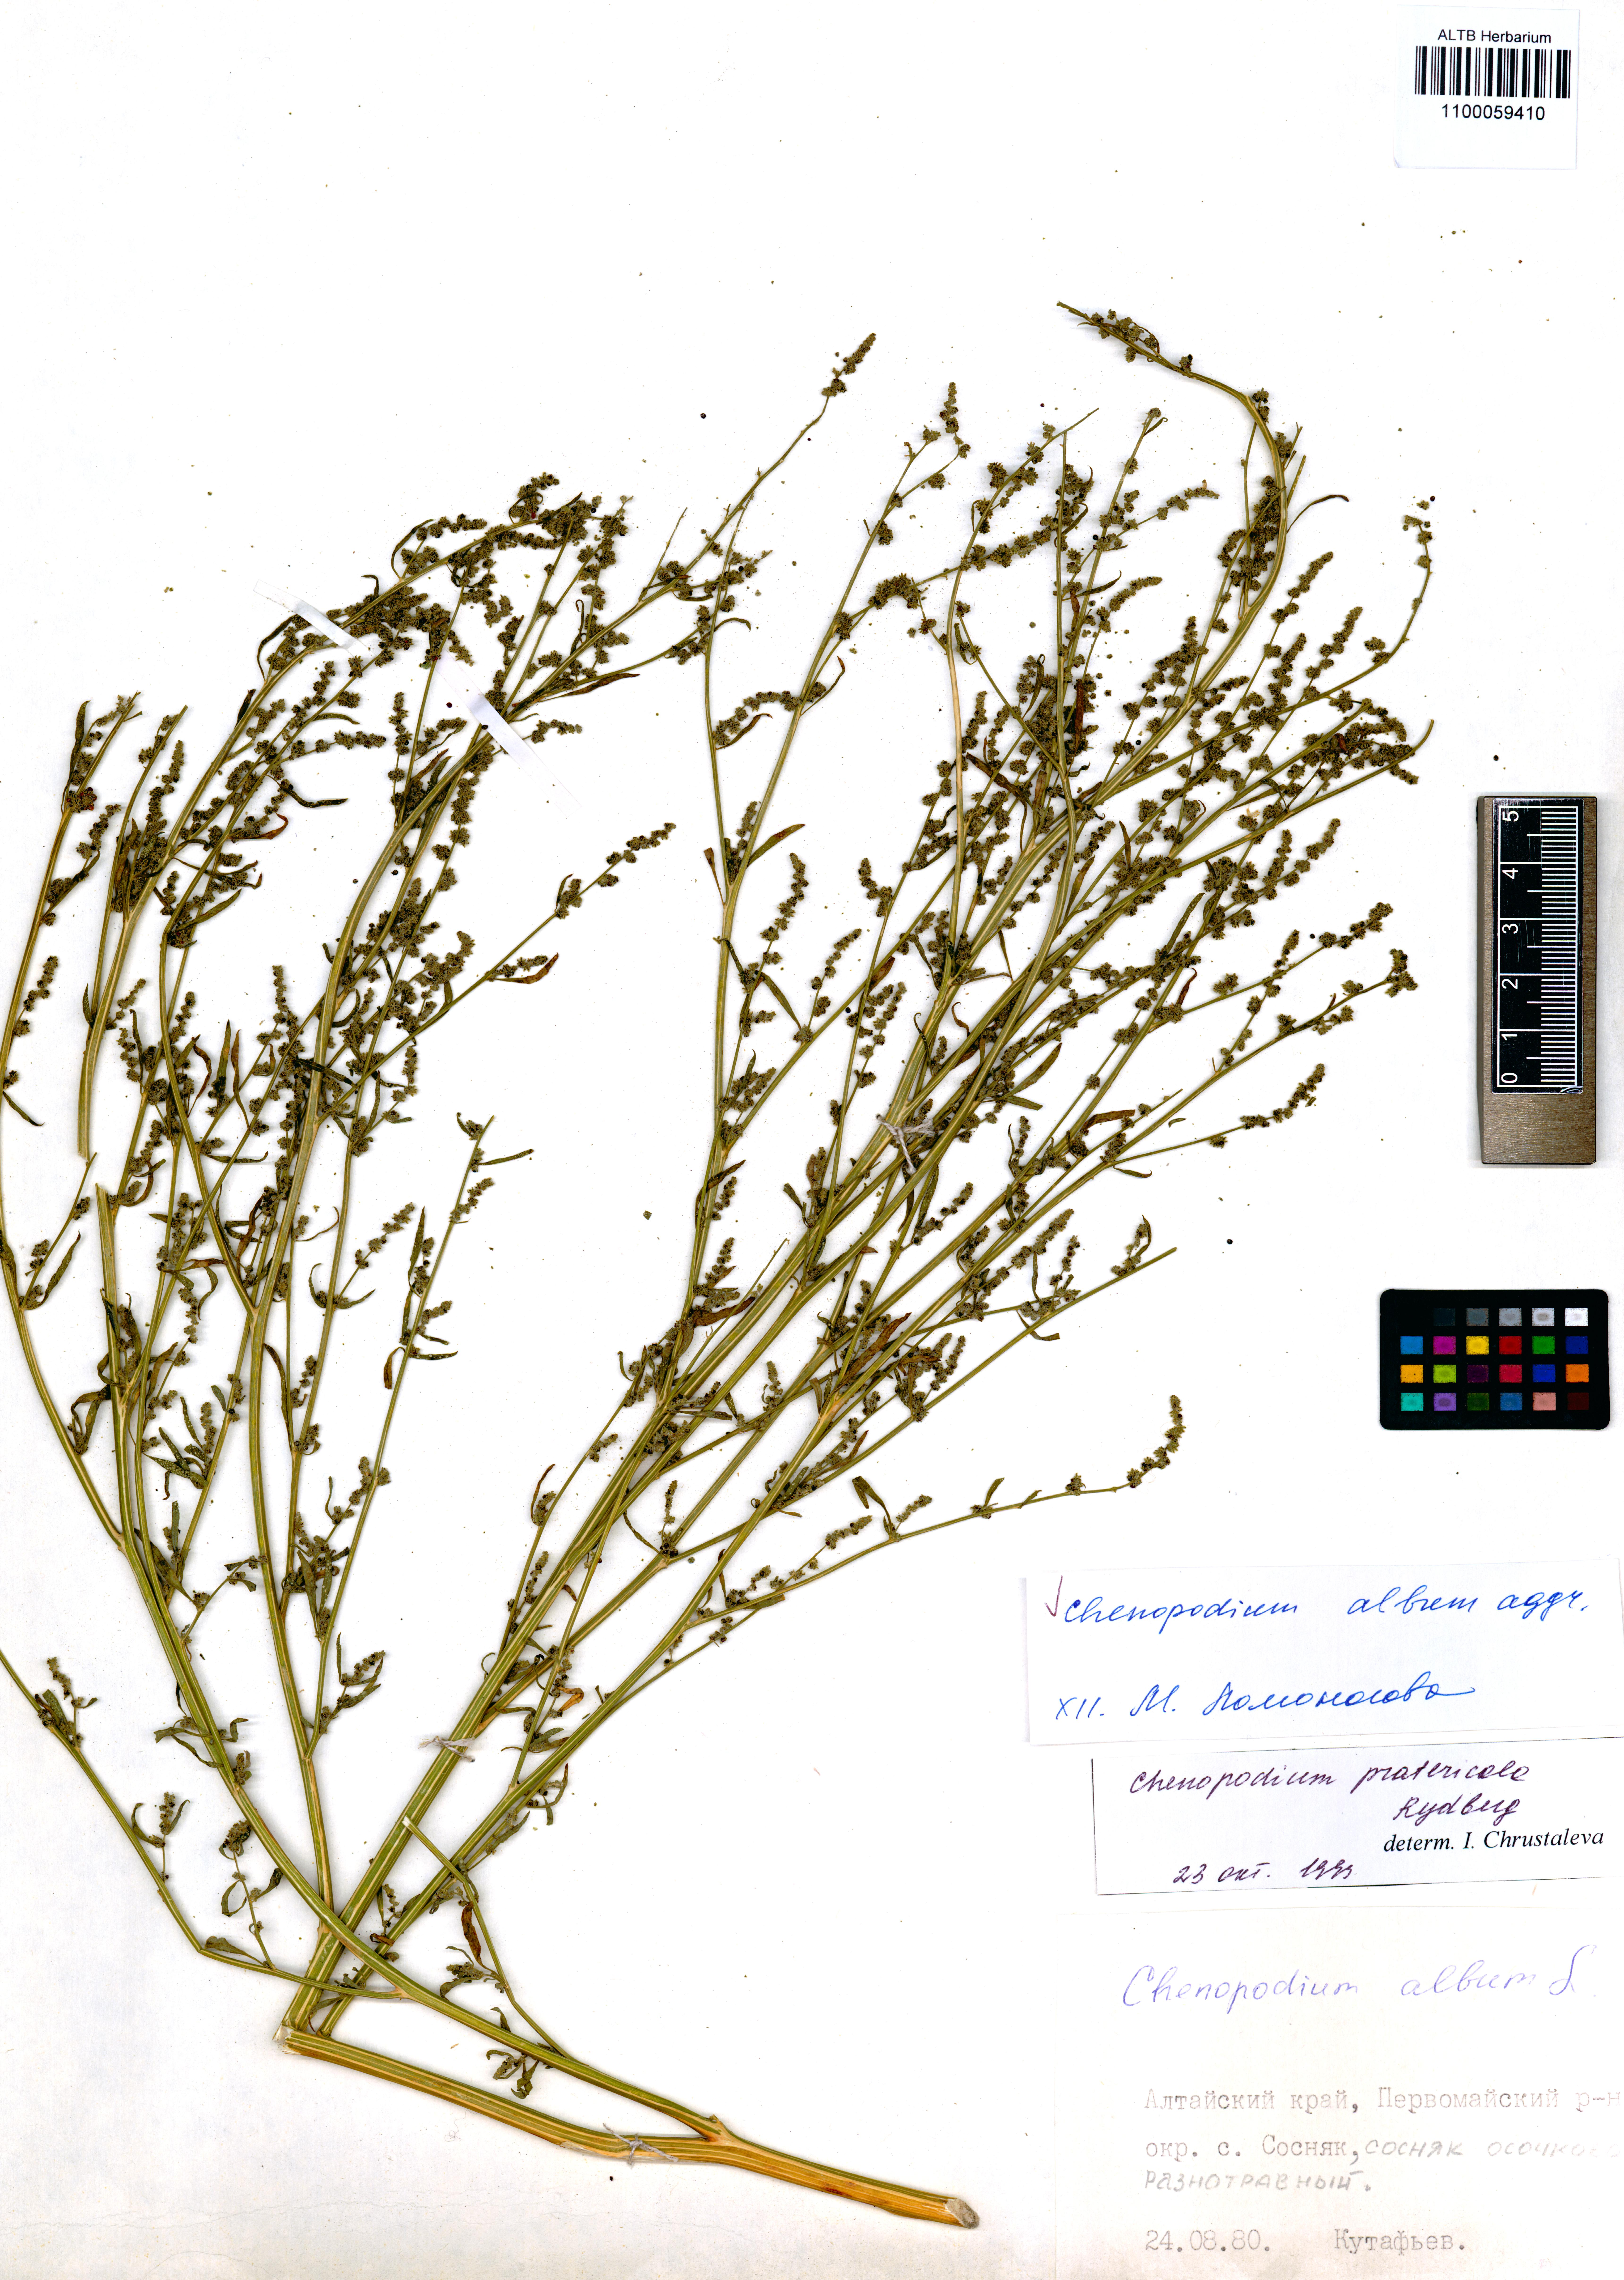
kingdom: Plantae
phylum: Tracheophyta
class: Magnoliopsida
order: Caryophyllales
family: Amaranthaceae
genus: Chenopodium
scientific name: Chenopodium album
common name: Fat-hen
